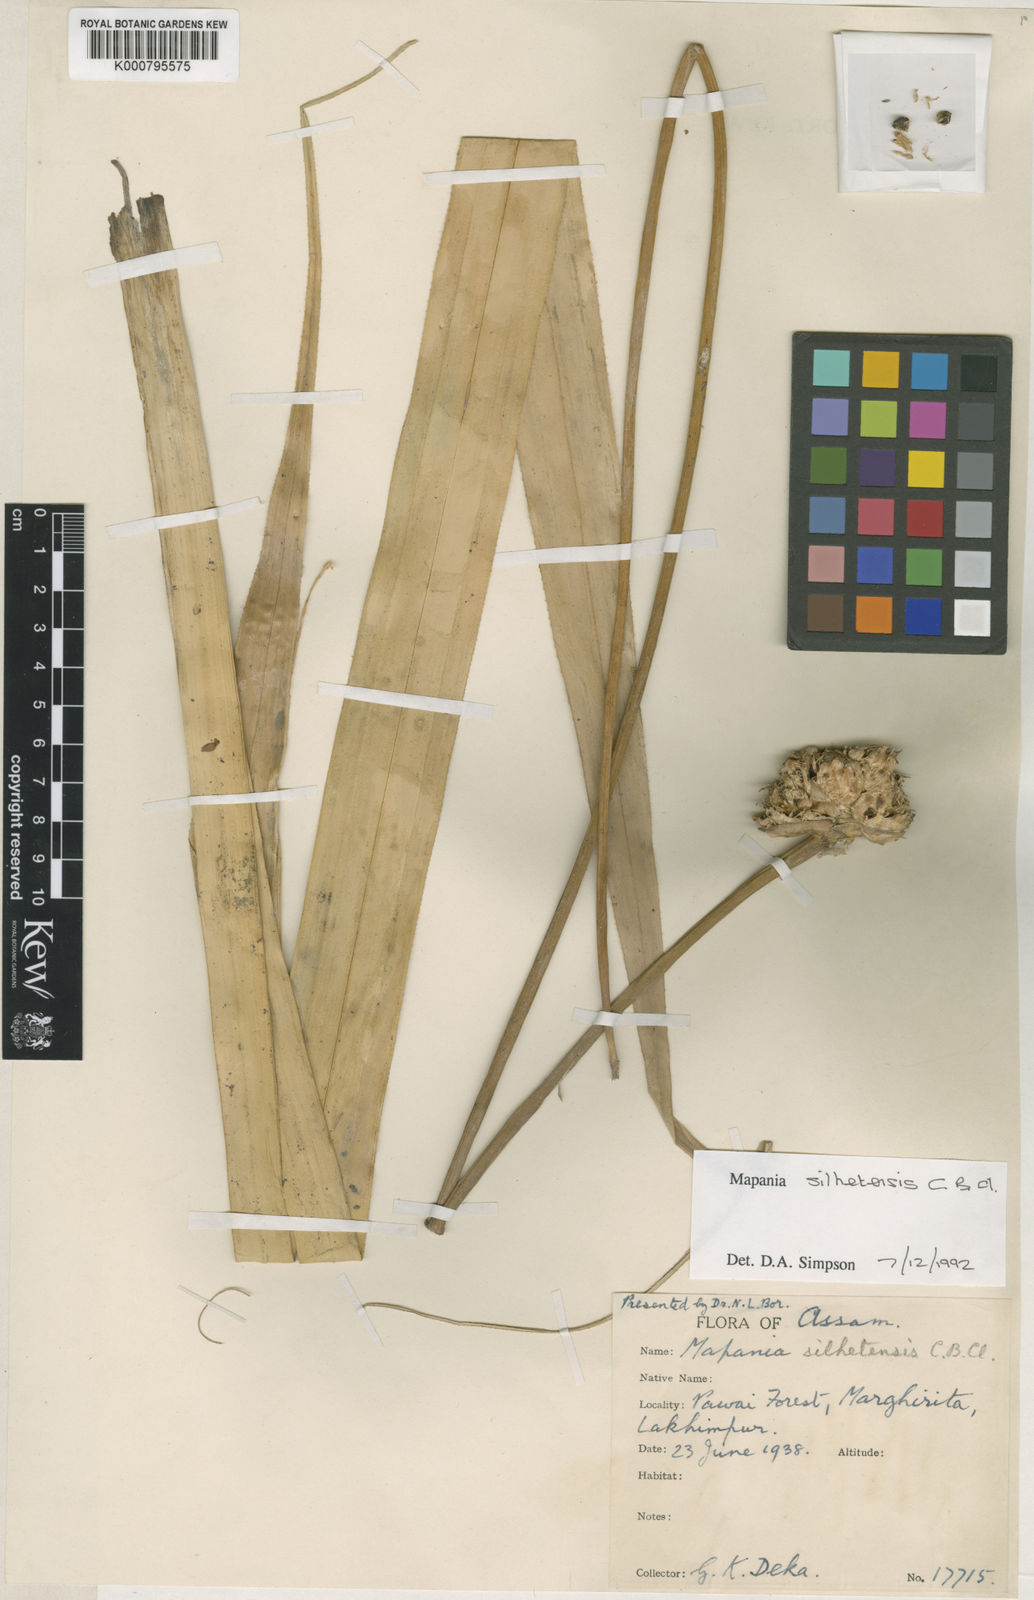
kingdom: Plantae
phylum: Tracheophyta
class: Liliopsida
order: Poales
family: Cyperaceae
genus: Mapania
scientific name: Mapania
